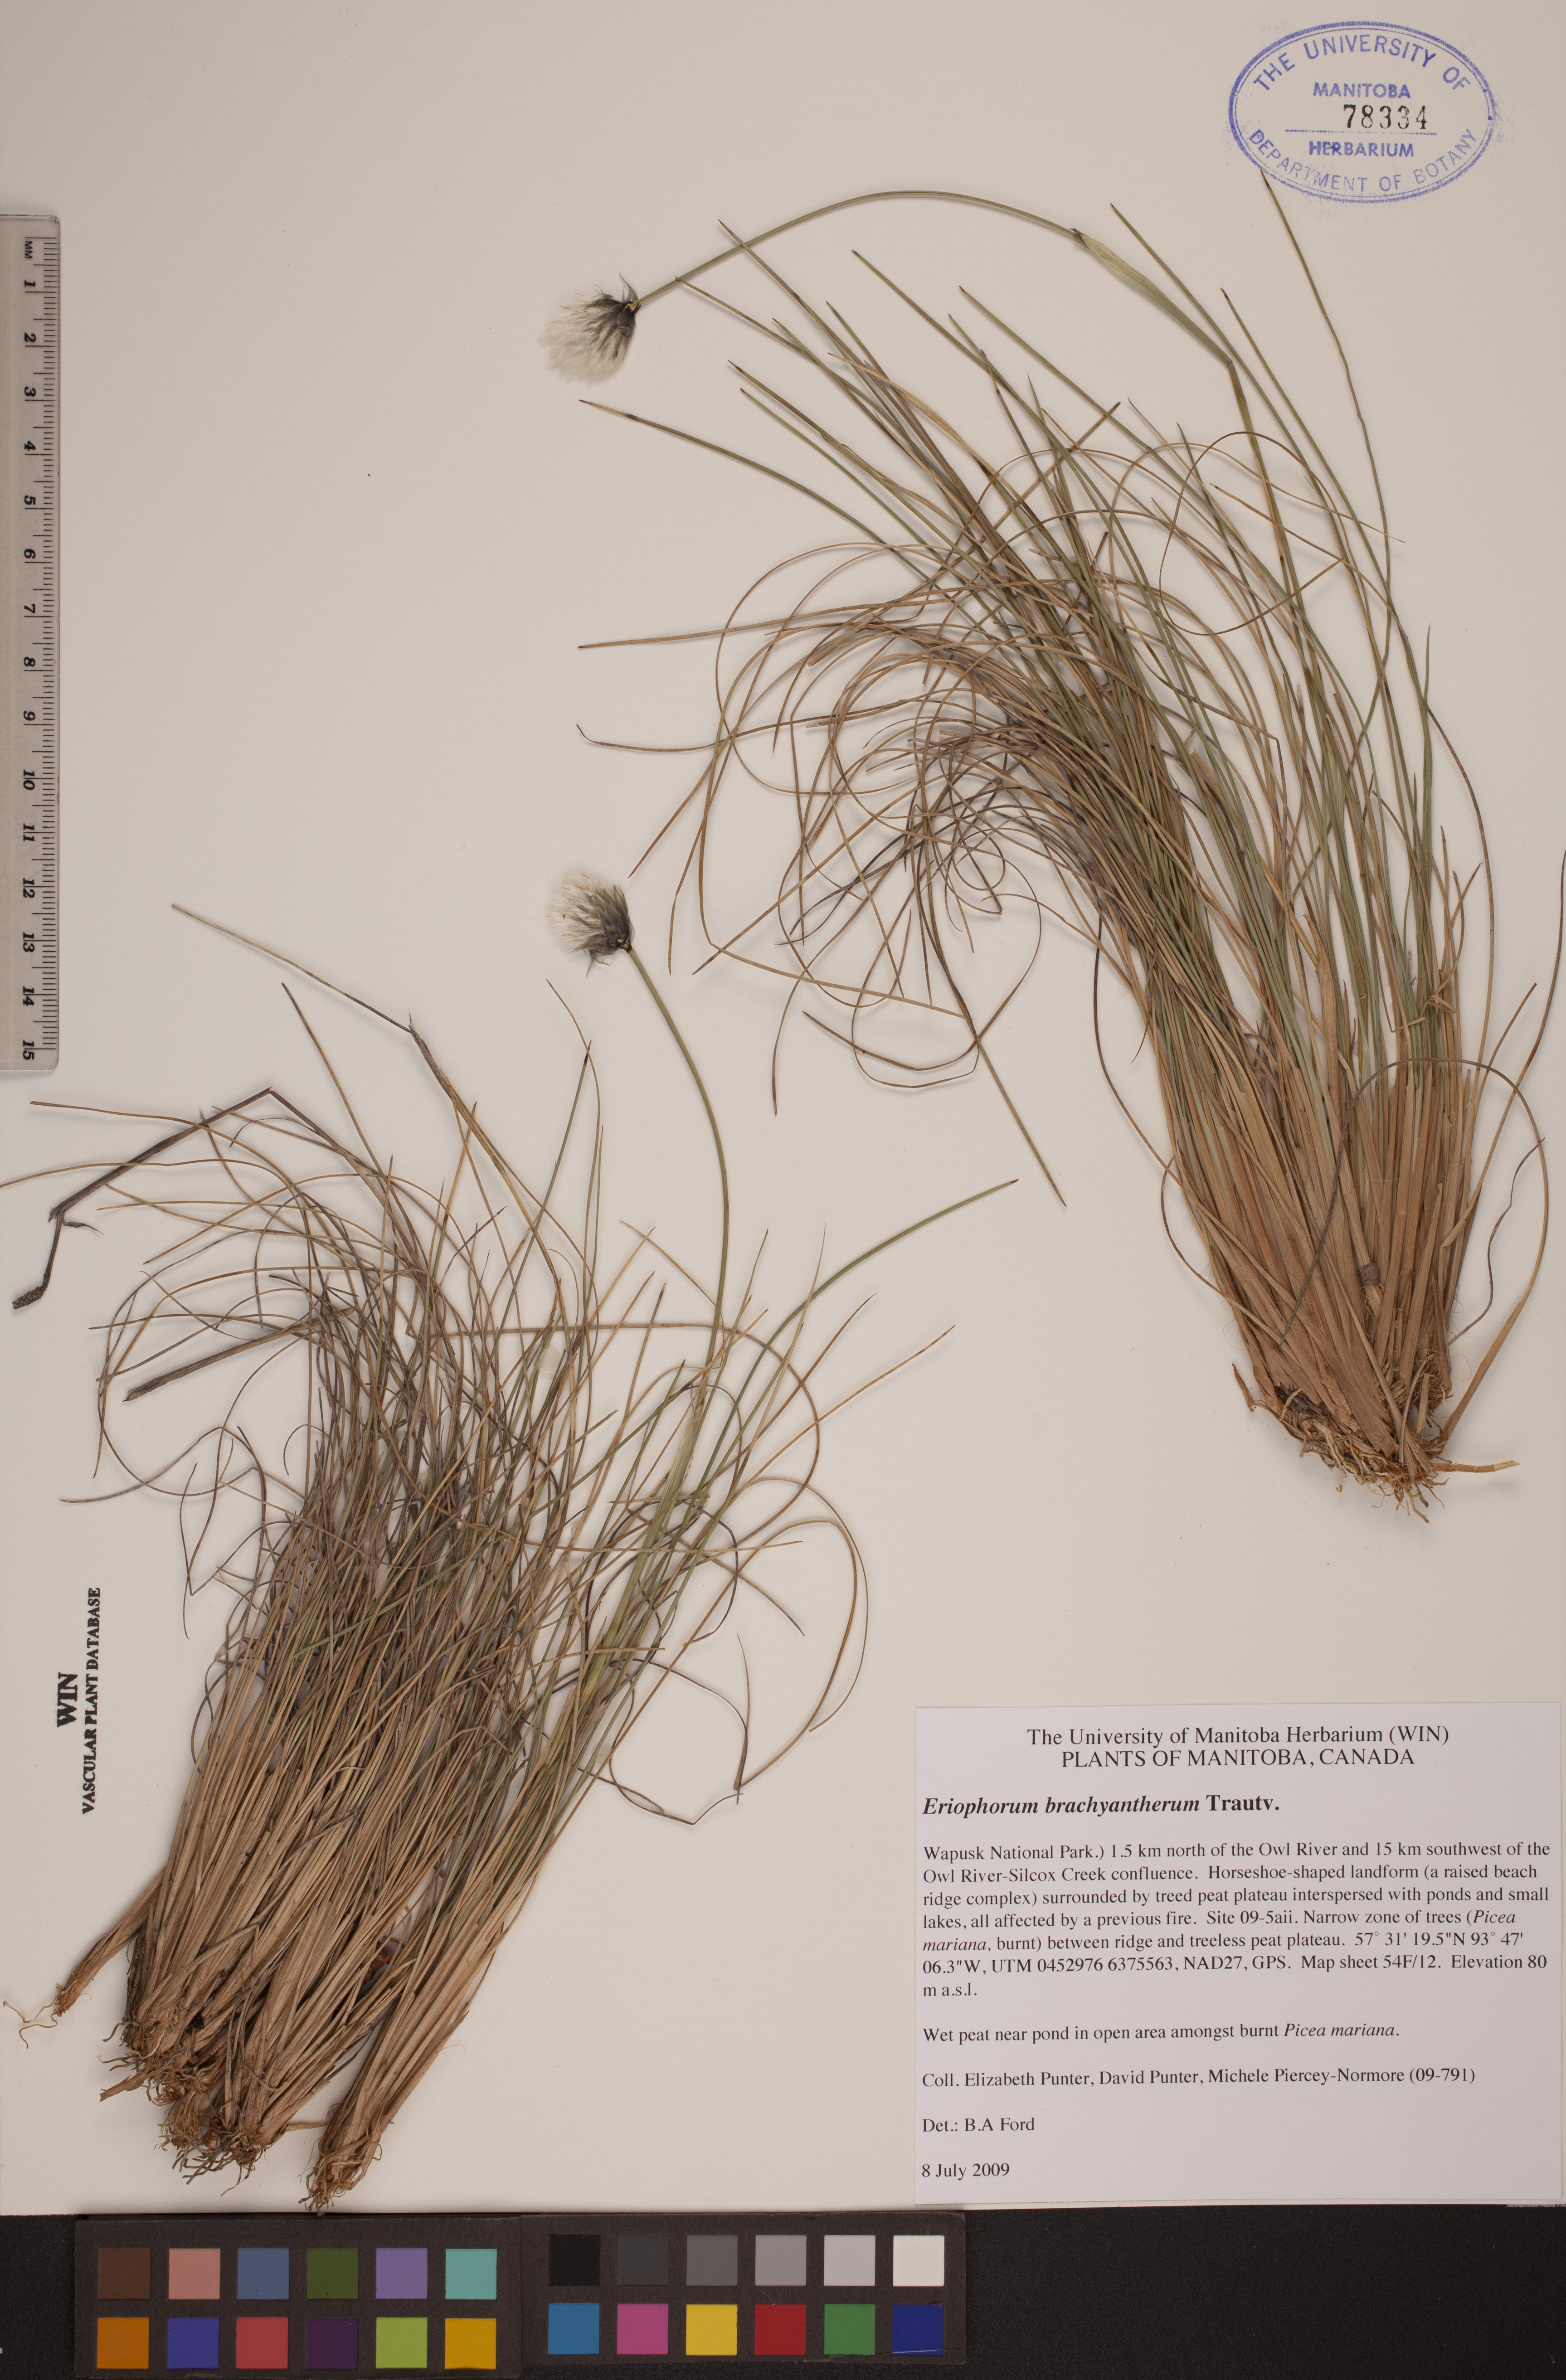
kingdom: Plantae
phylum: Tracheophyta
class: Liliopsida
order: Poales
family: Cyperaceae
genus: Eriophorum
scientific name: Eriophorum brachyantherum
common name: Closed-sheathed cottongrass
